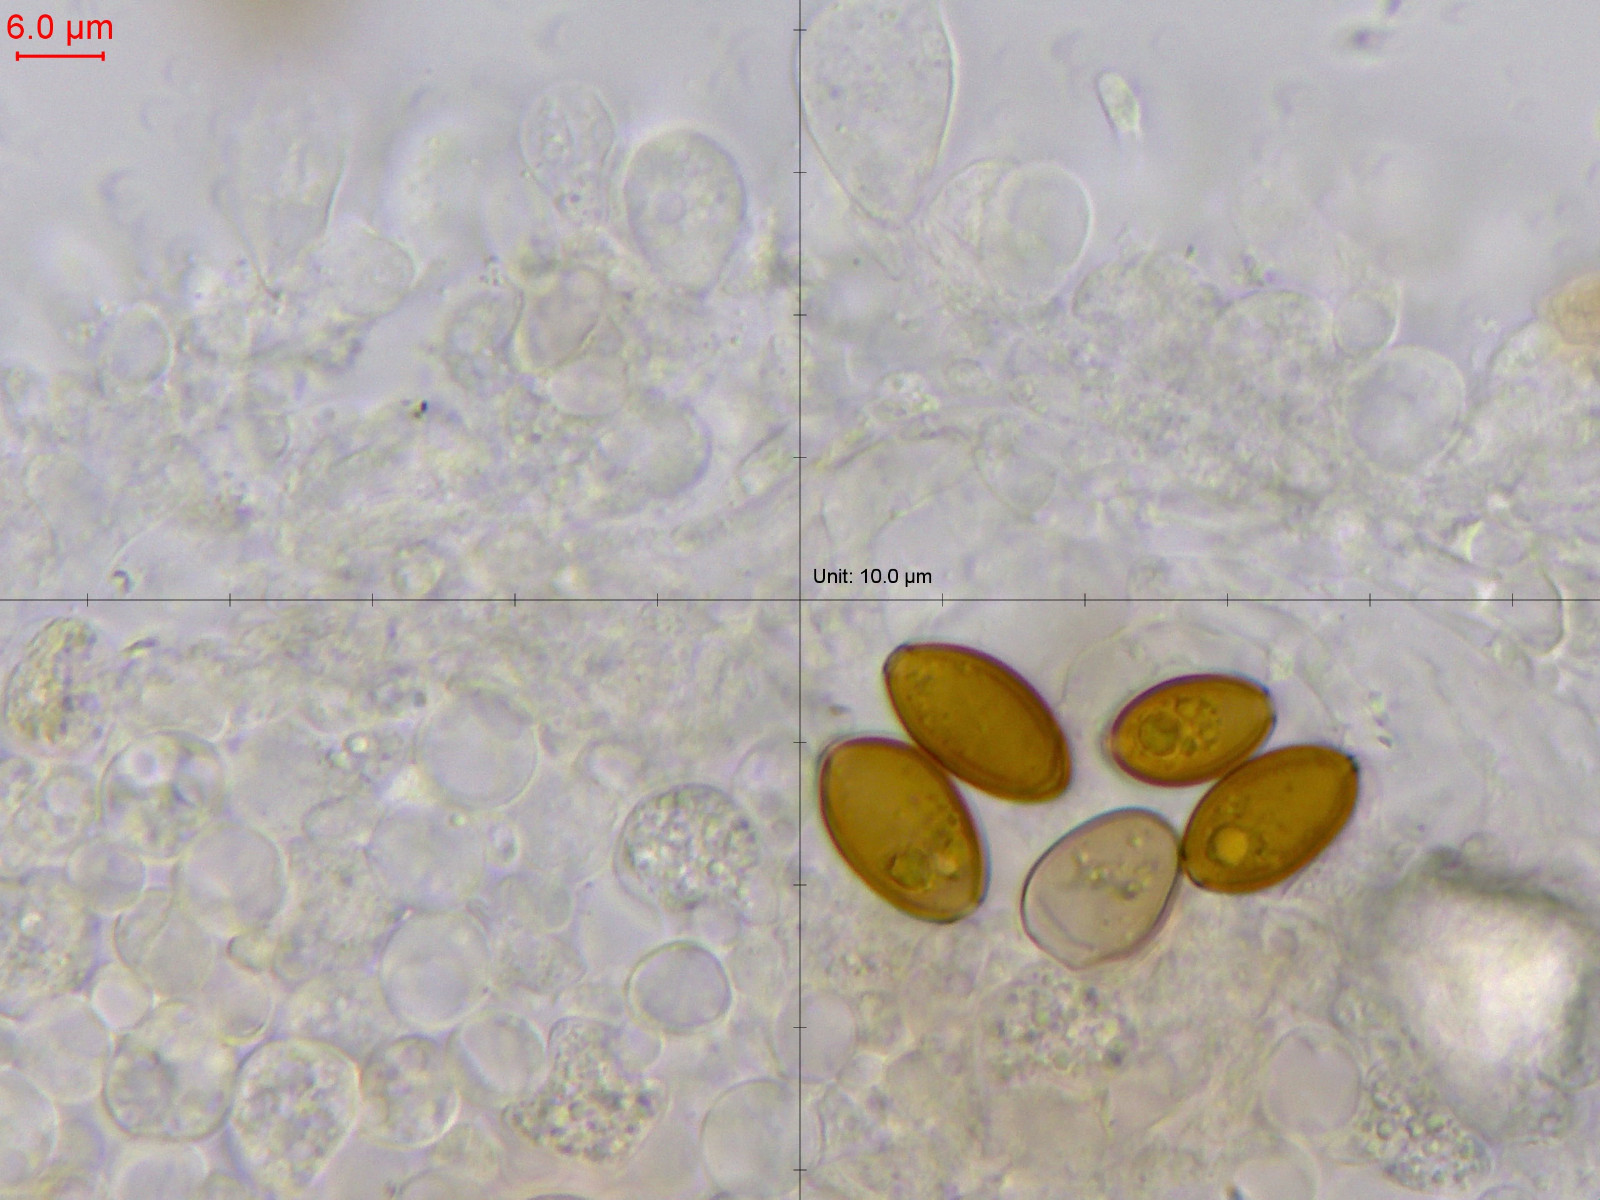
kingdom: Fungi
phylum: Basidiomycota
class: Agaricomycetes
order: Agaricales
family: Bolbitiaceae
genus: Conocybe
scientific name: Conocybe rickenii
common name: møg-keglehat
